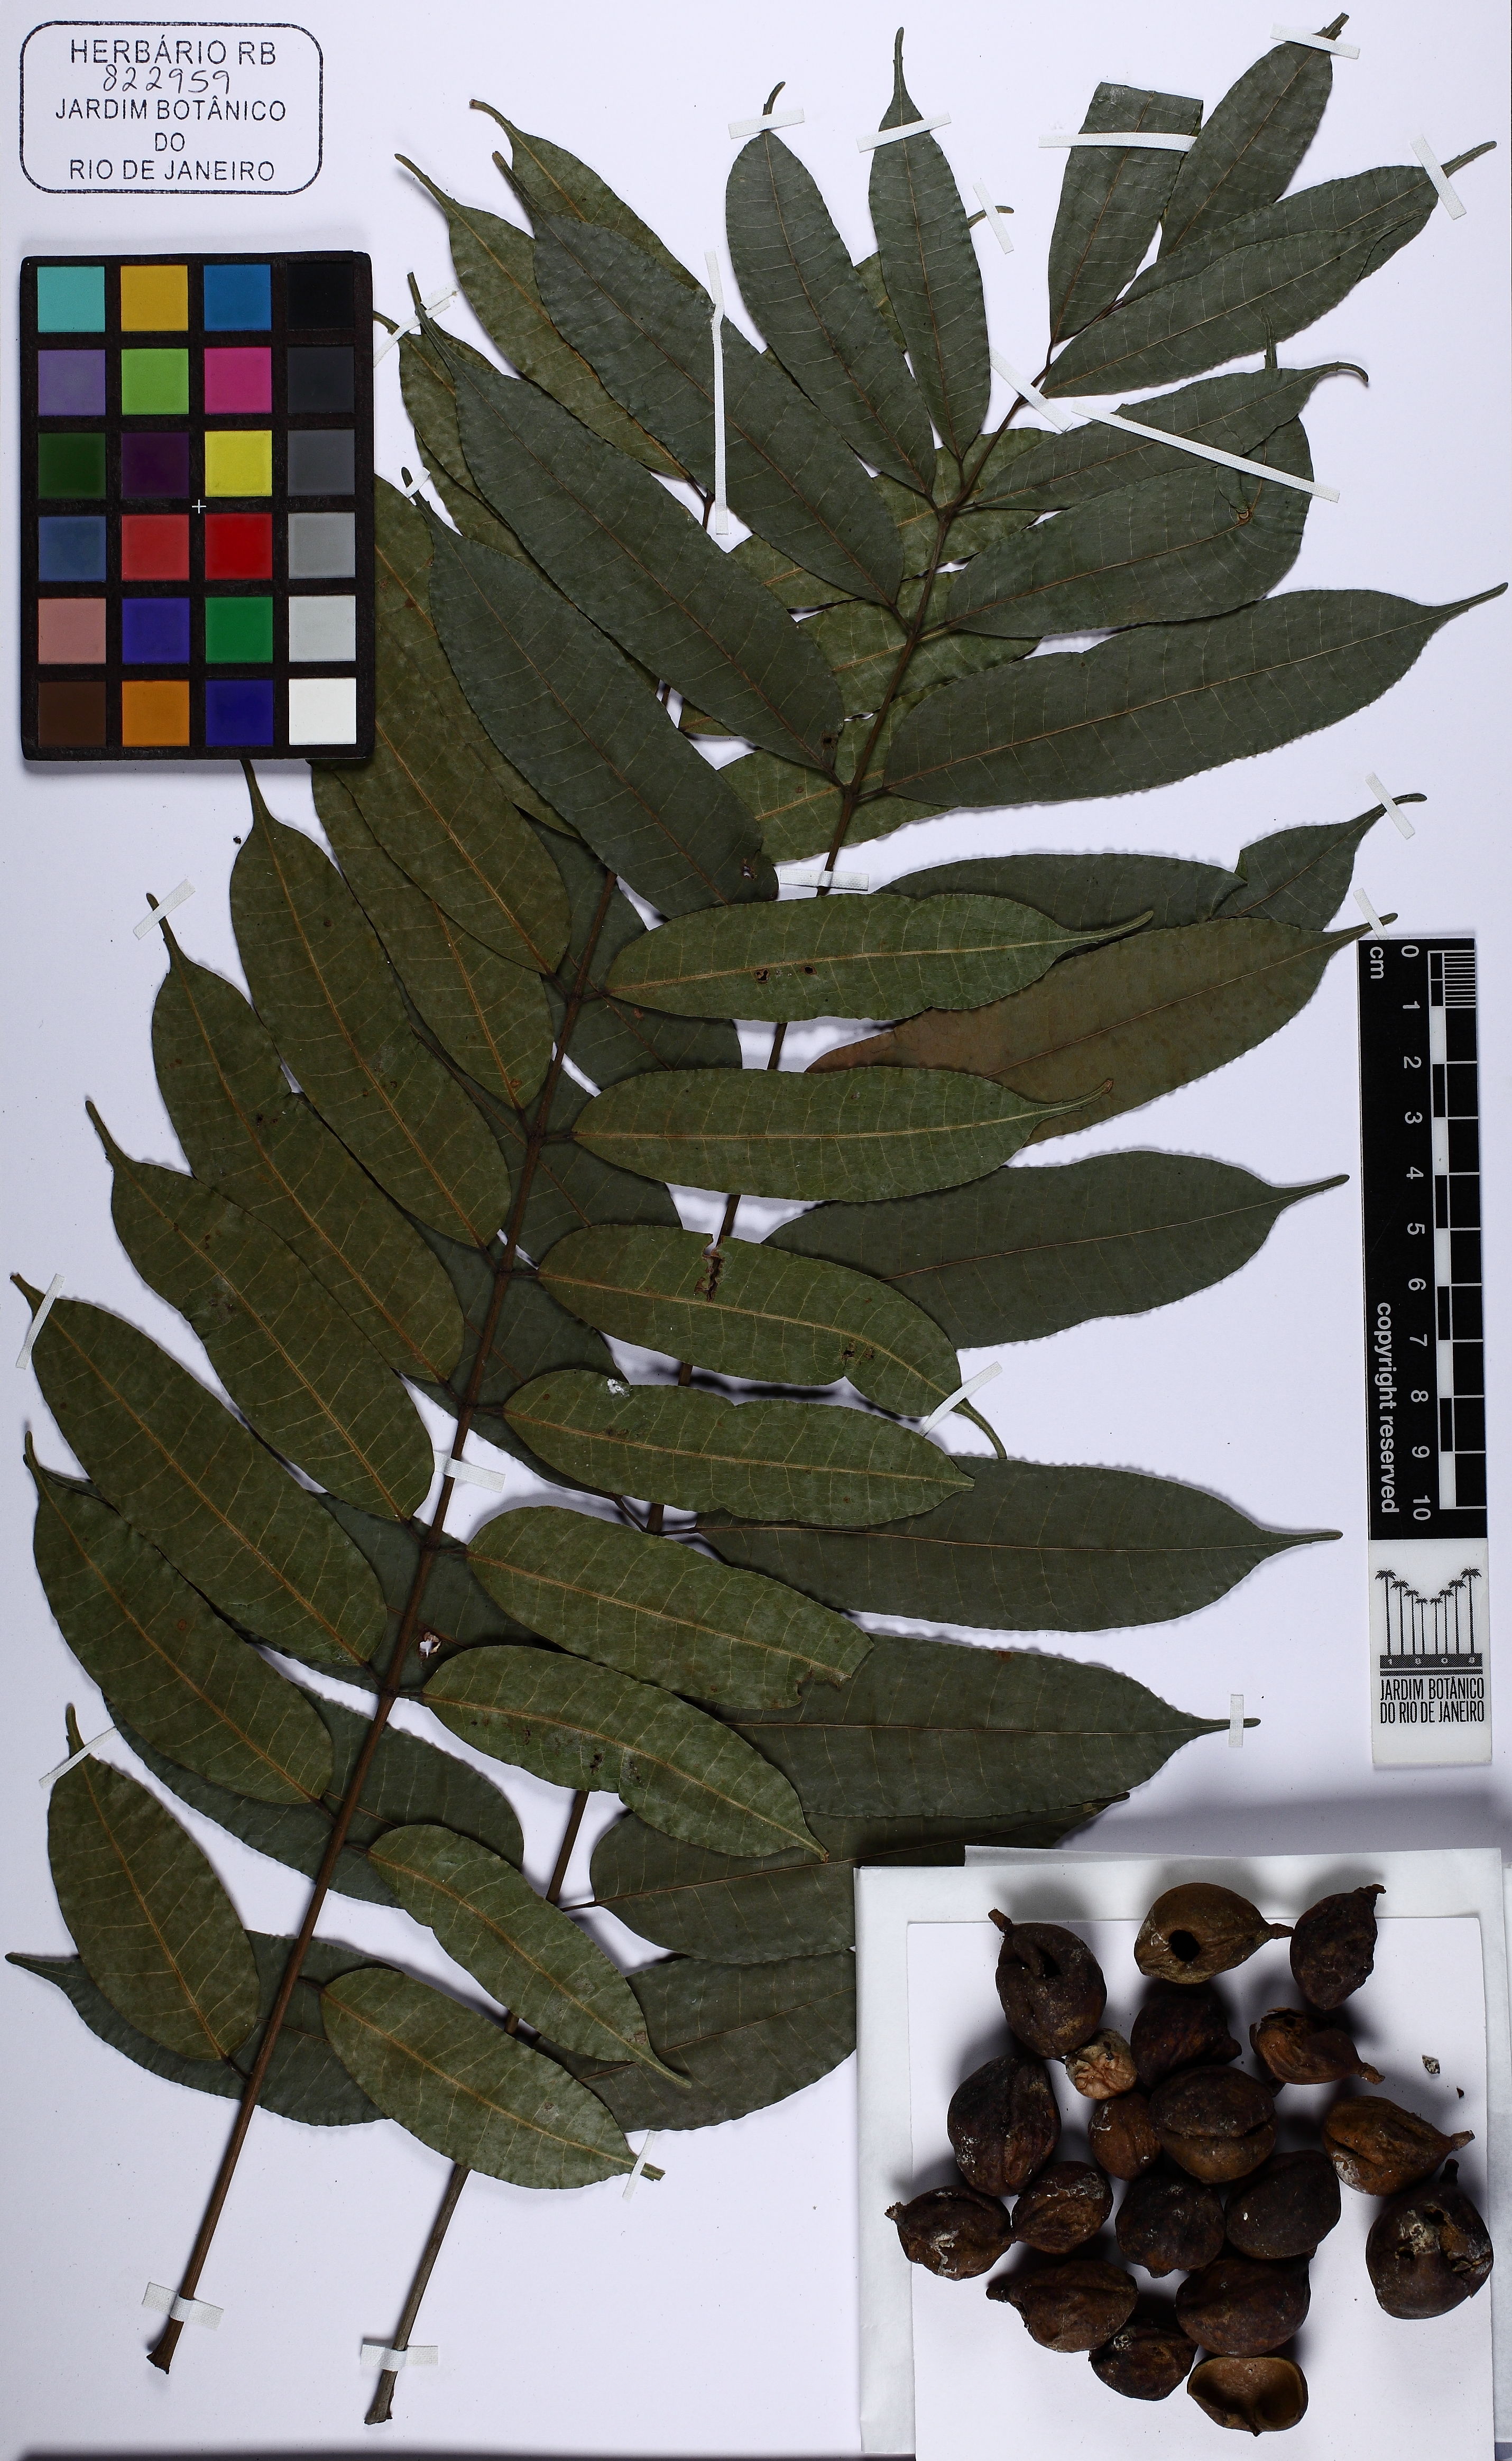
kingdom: Plantae
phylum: Tracheophyta
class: Magnoliopsida
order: Sapindales
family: Burseraceae
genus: Protium
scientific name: Protium spruceanum
